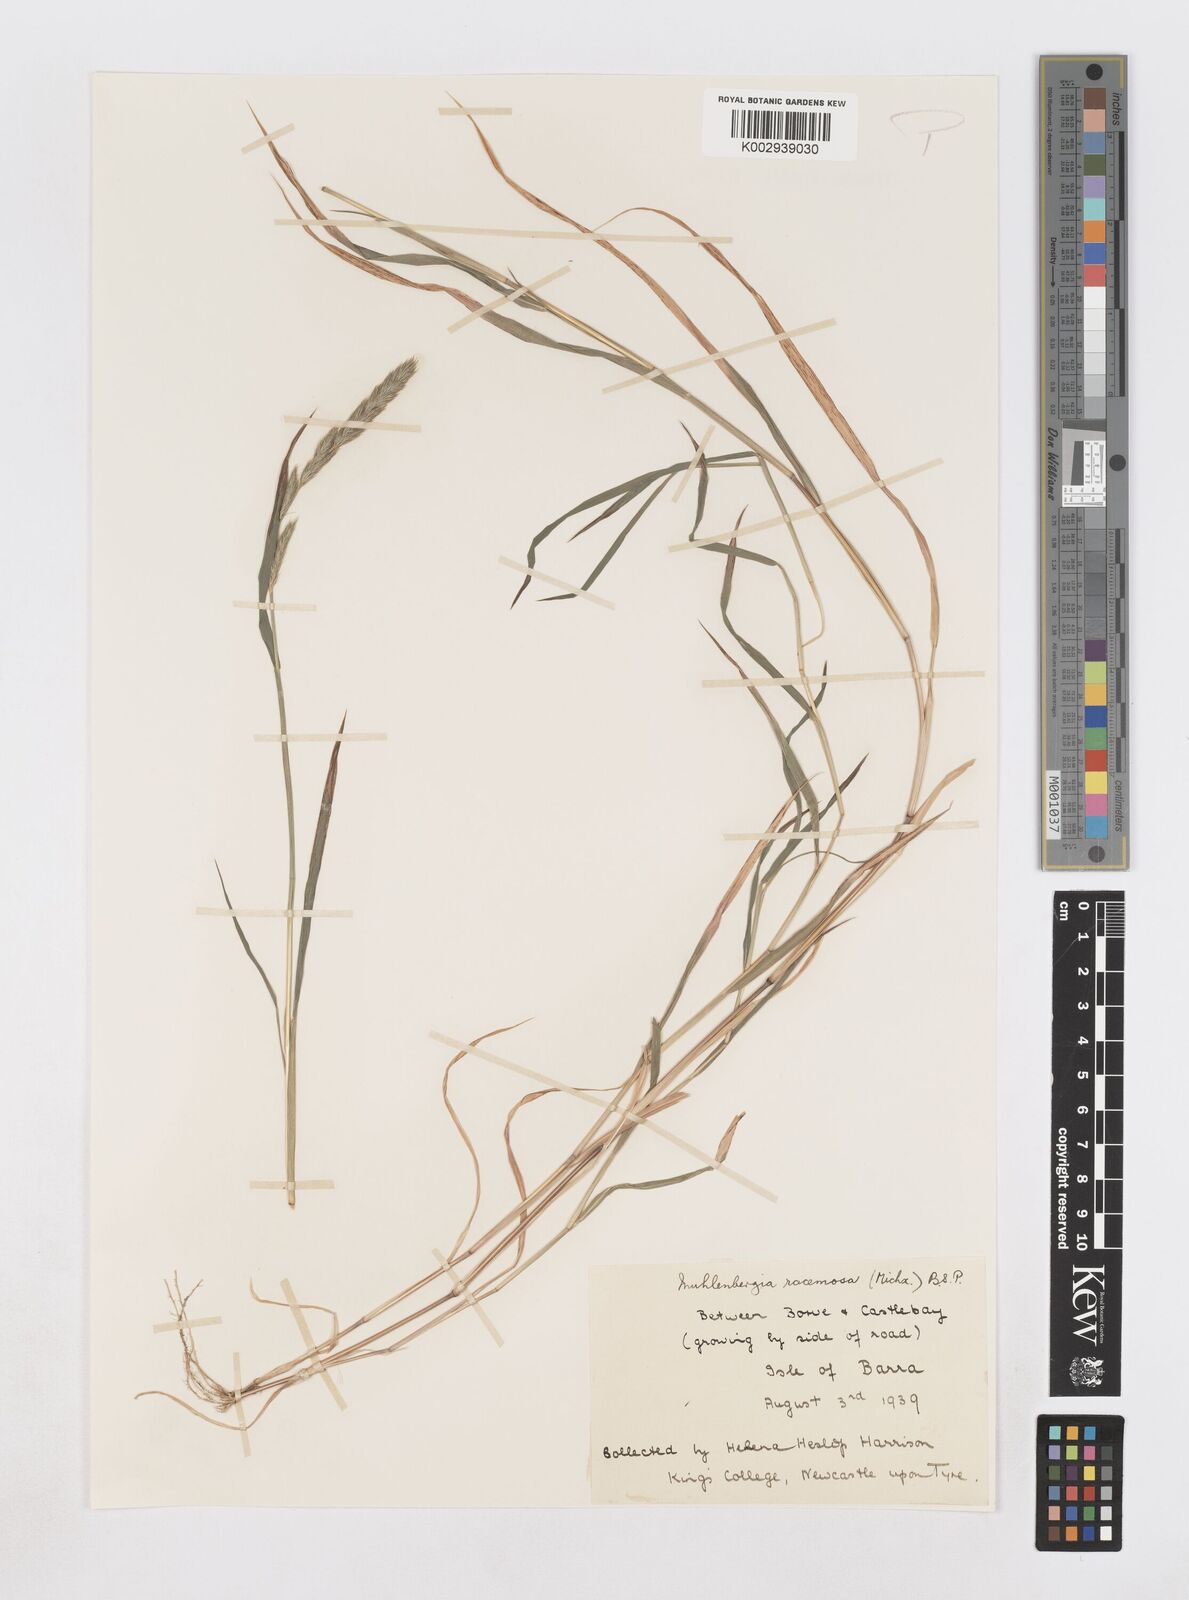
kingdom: Plantae
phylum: Tracheophyta
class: Liliopsida
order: Poales
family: Poaceae
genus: Muhlenbergia
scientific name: Muhlenbergia racemosa
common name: Green muhly
